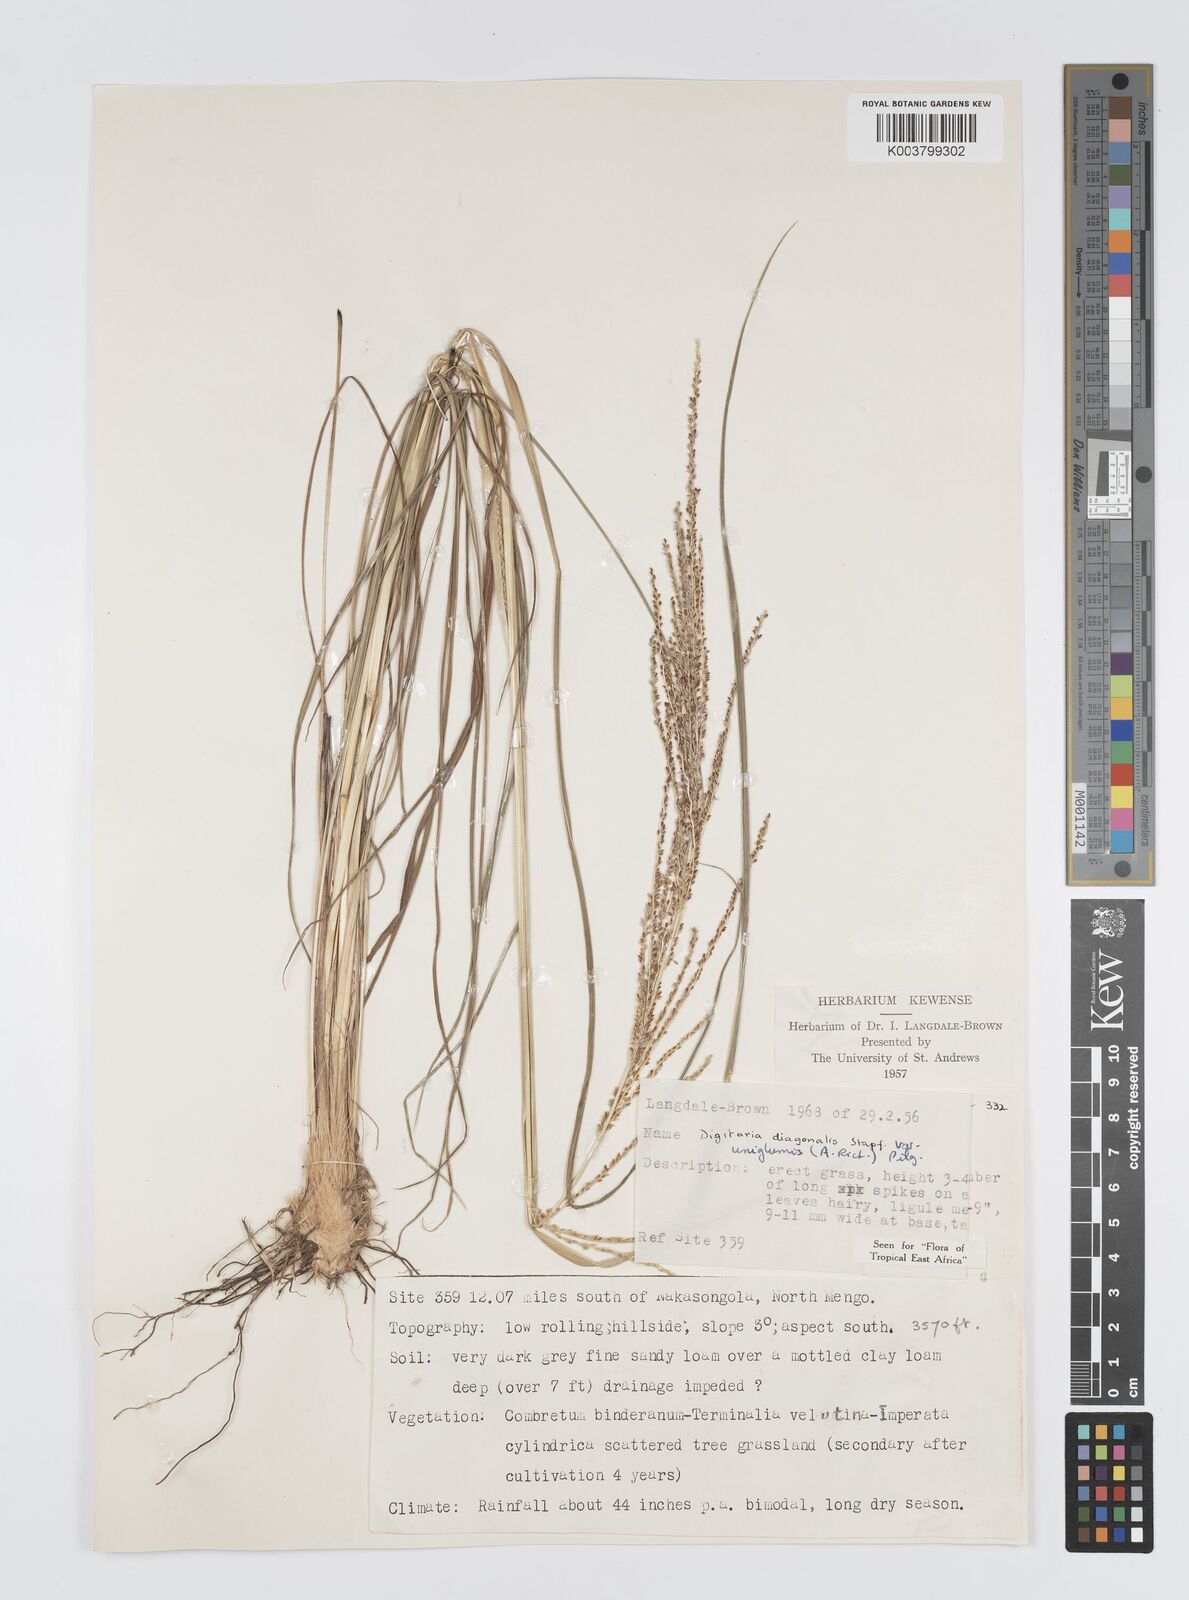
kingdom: Plantae
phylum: Tracheophyta
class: Liliopsida
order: Poales
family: Poaceae
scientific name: Poaceae
